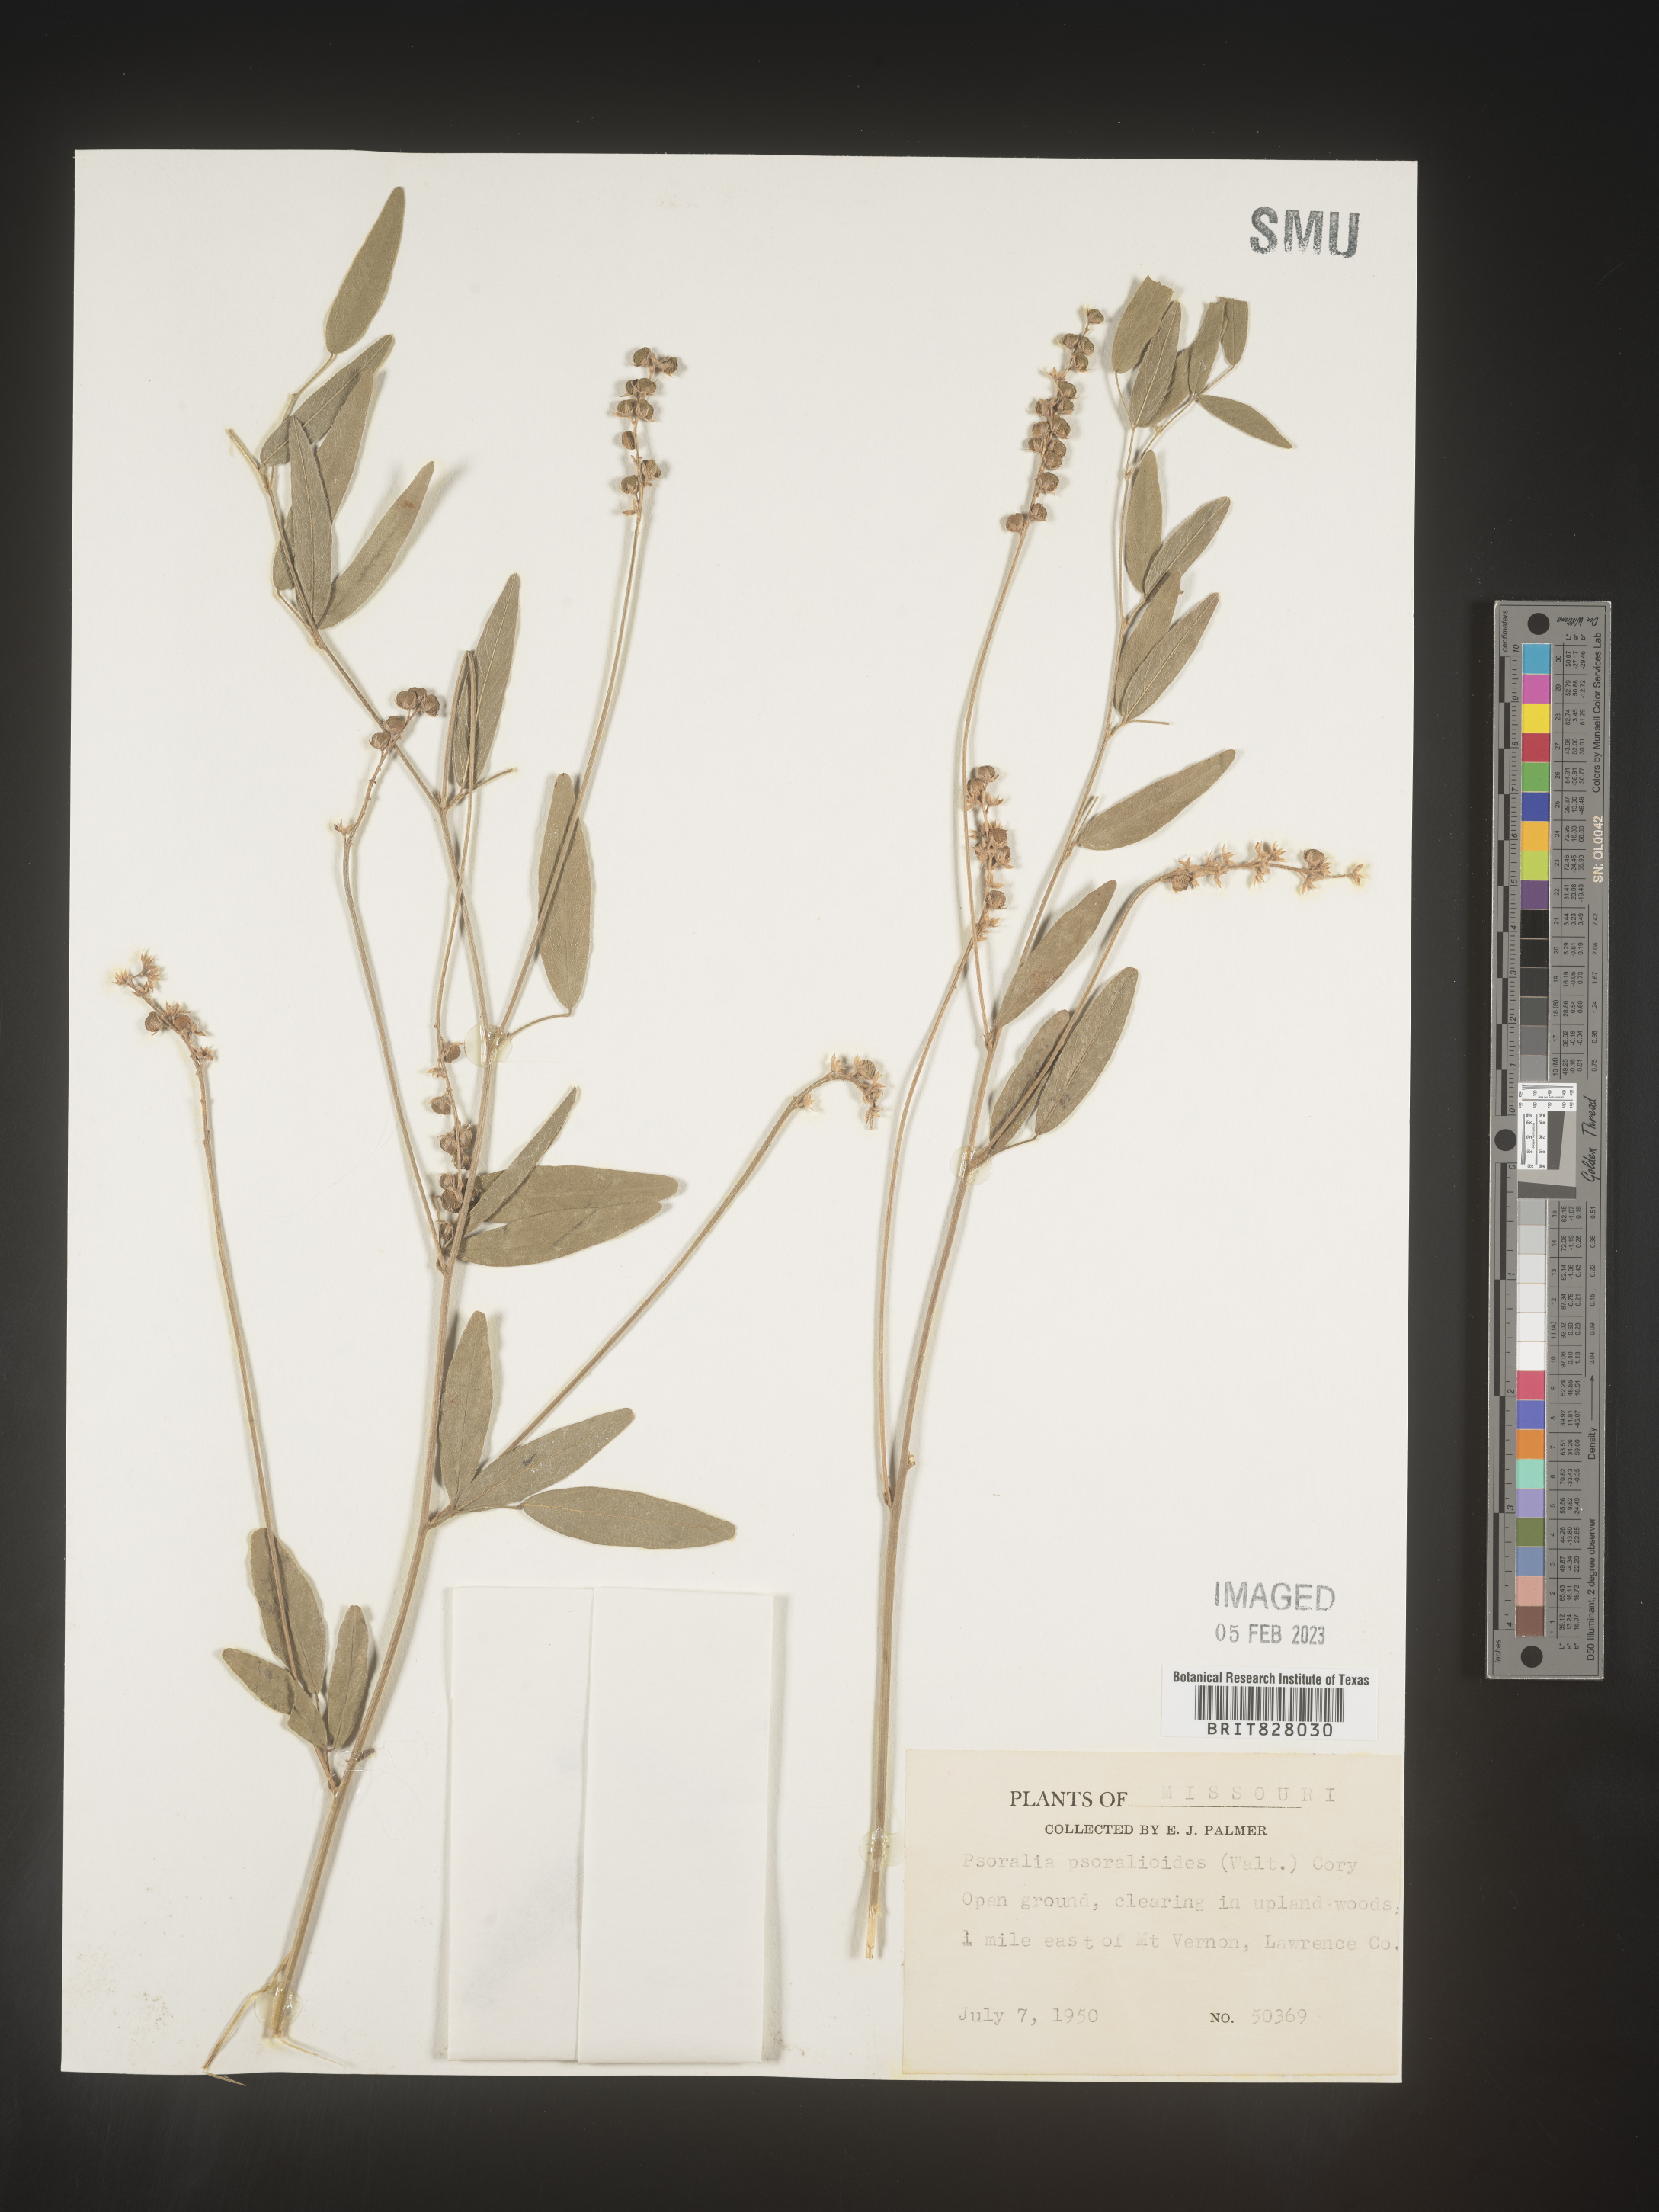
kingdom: Plantae
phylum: Tracheophyta
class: Magnoliopsida
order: Fabales
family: Fabaceae
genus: Orbexilum
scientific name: Orbexilum pedunculatum
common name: Sampson's snakeroot
